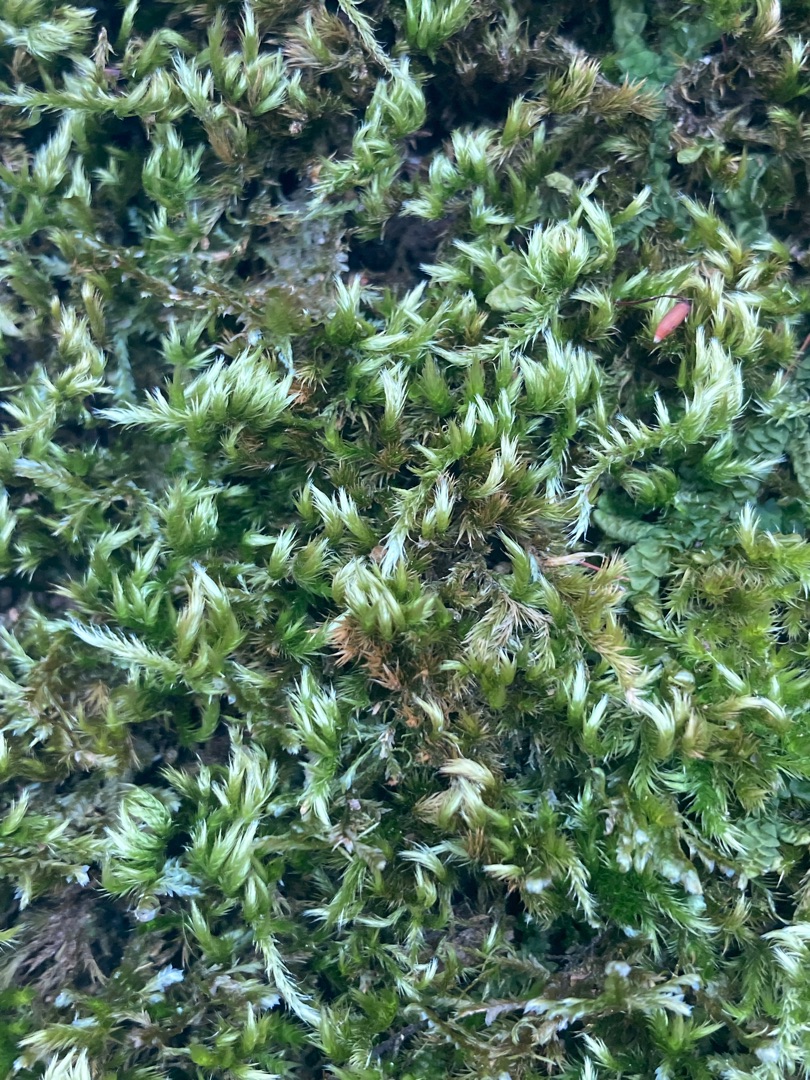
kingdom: Plantae
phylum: Bryophyta
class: Bryopsida
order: Hypnales
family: Brachytheciaceae
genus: Homalothecium
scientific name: Homalothecium sericeum
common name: Krybende silkemos
